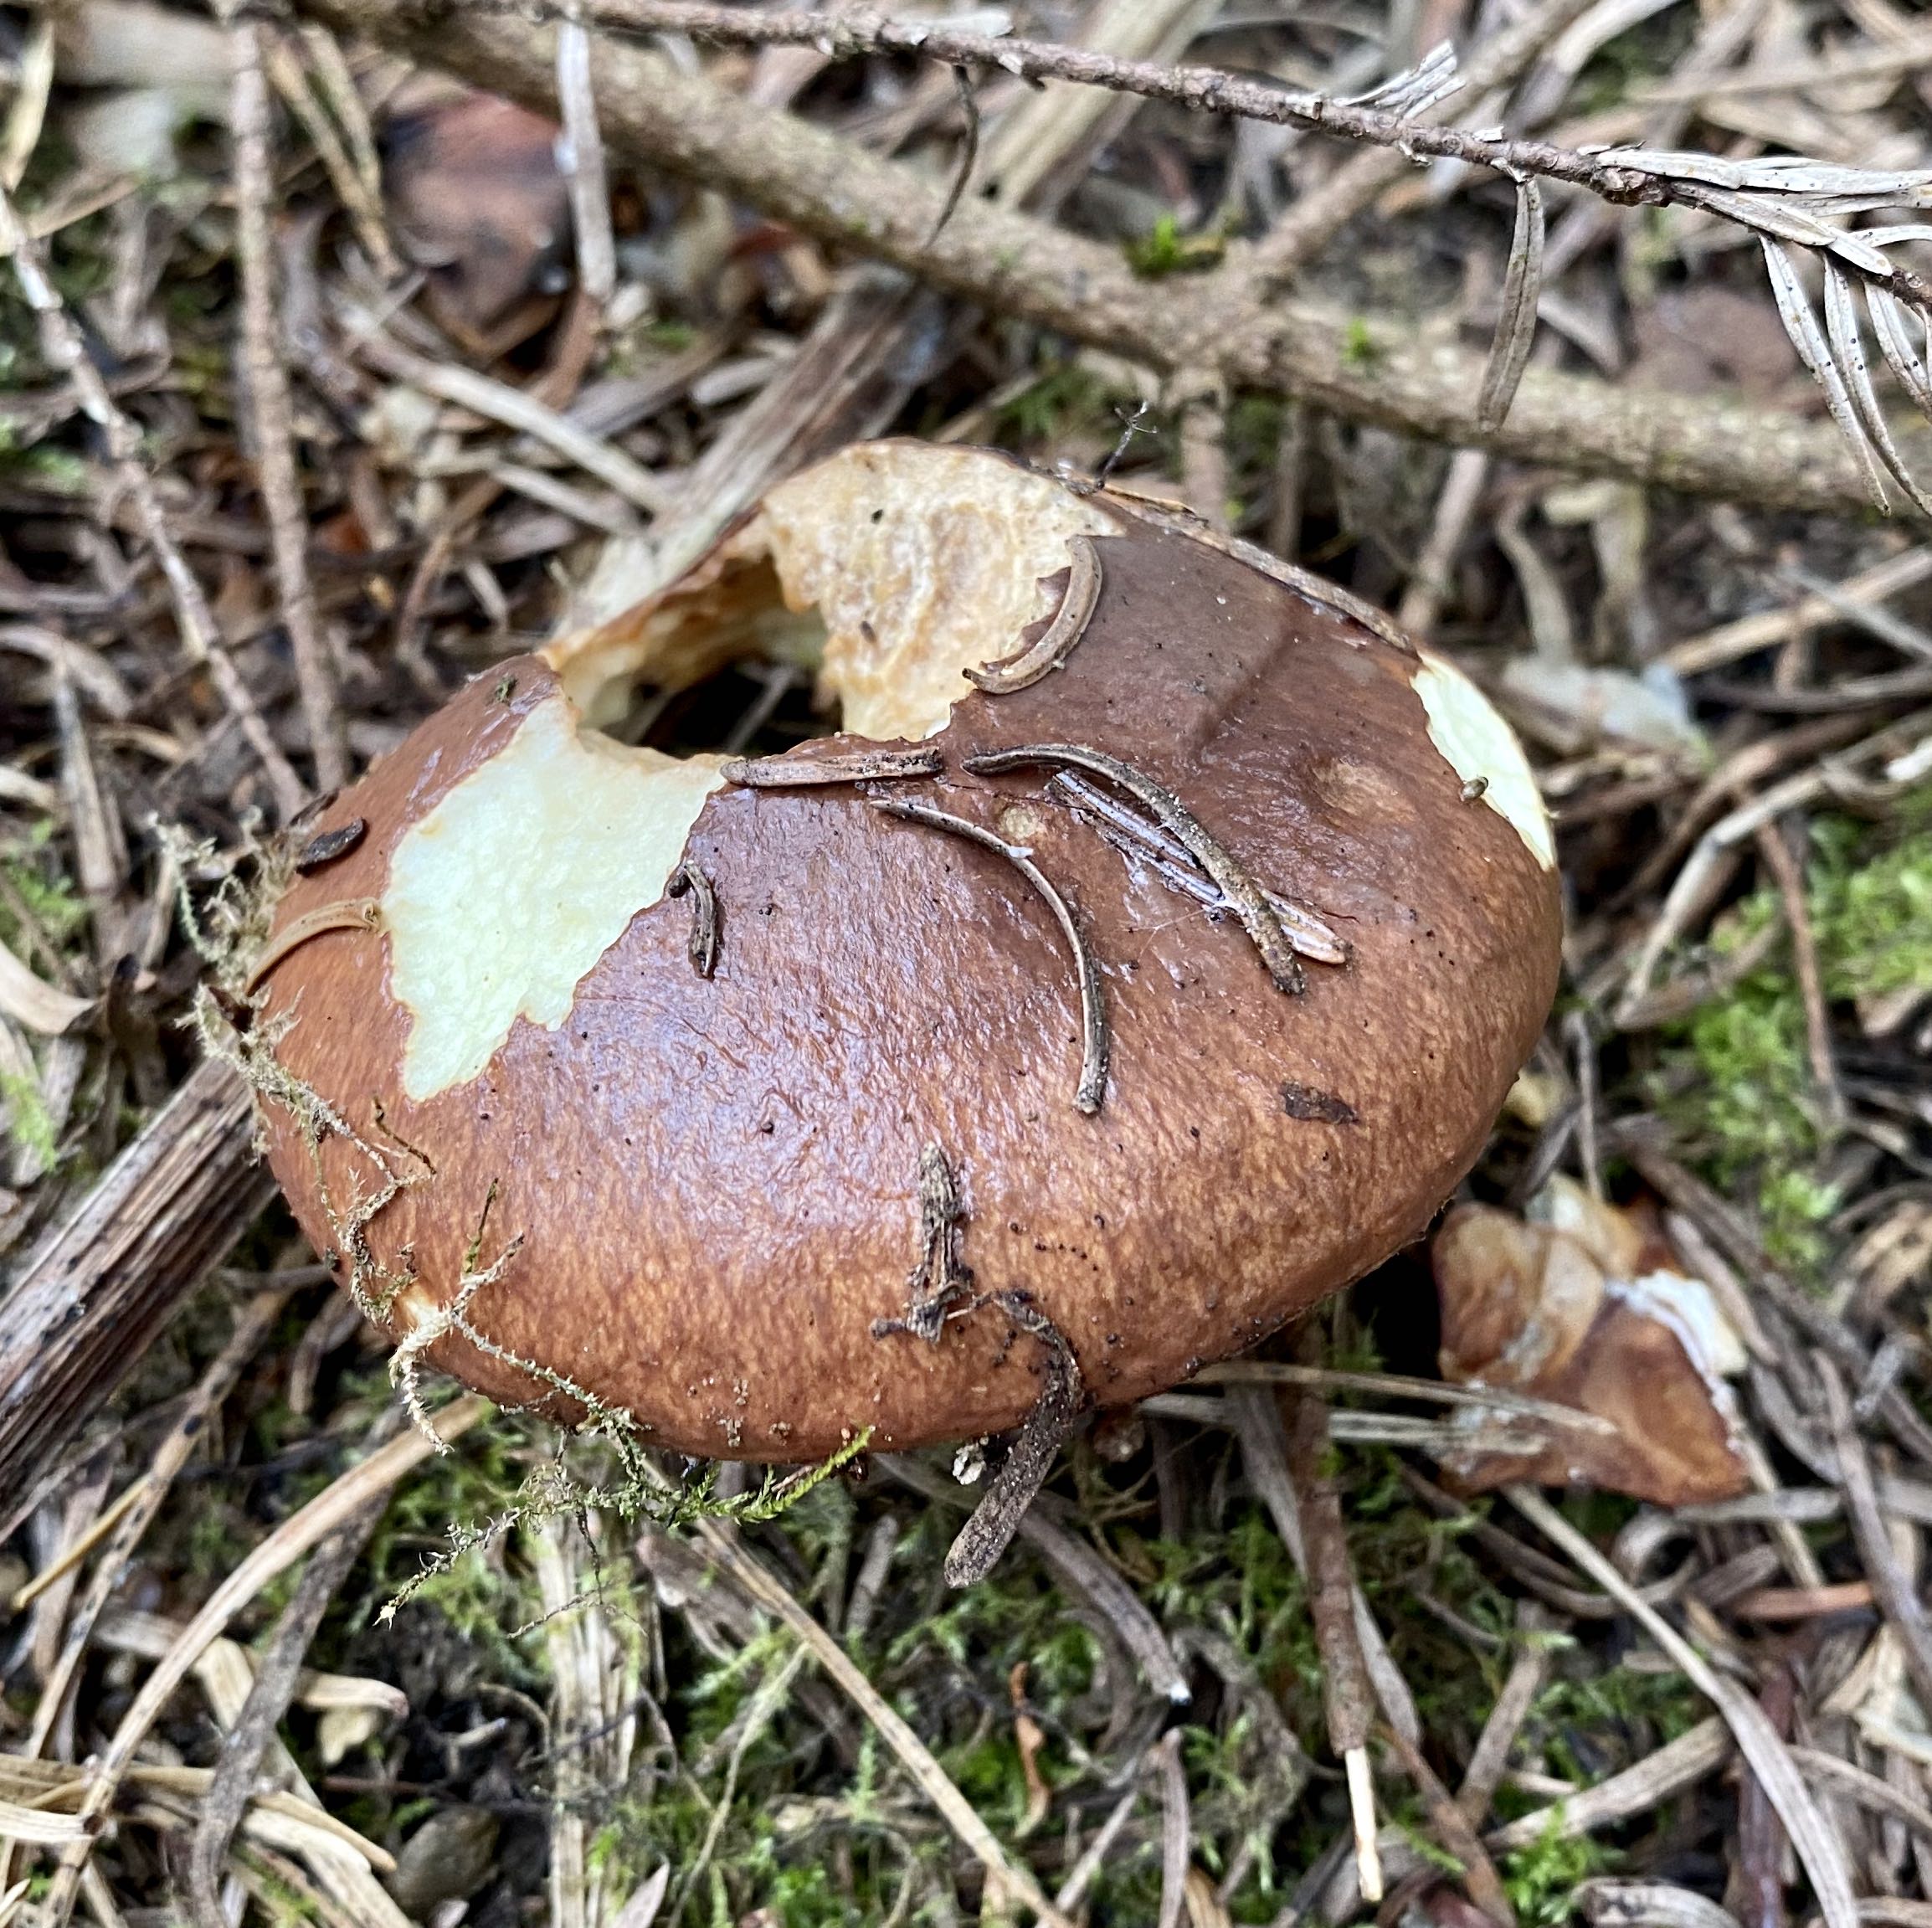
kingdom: Fungi
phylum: Basidiomycota
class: Agaricomycetes
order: Boletales
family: Suillaceae
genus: Suillus
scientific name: Suillus luteus
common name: brungul slimrørhat
